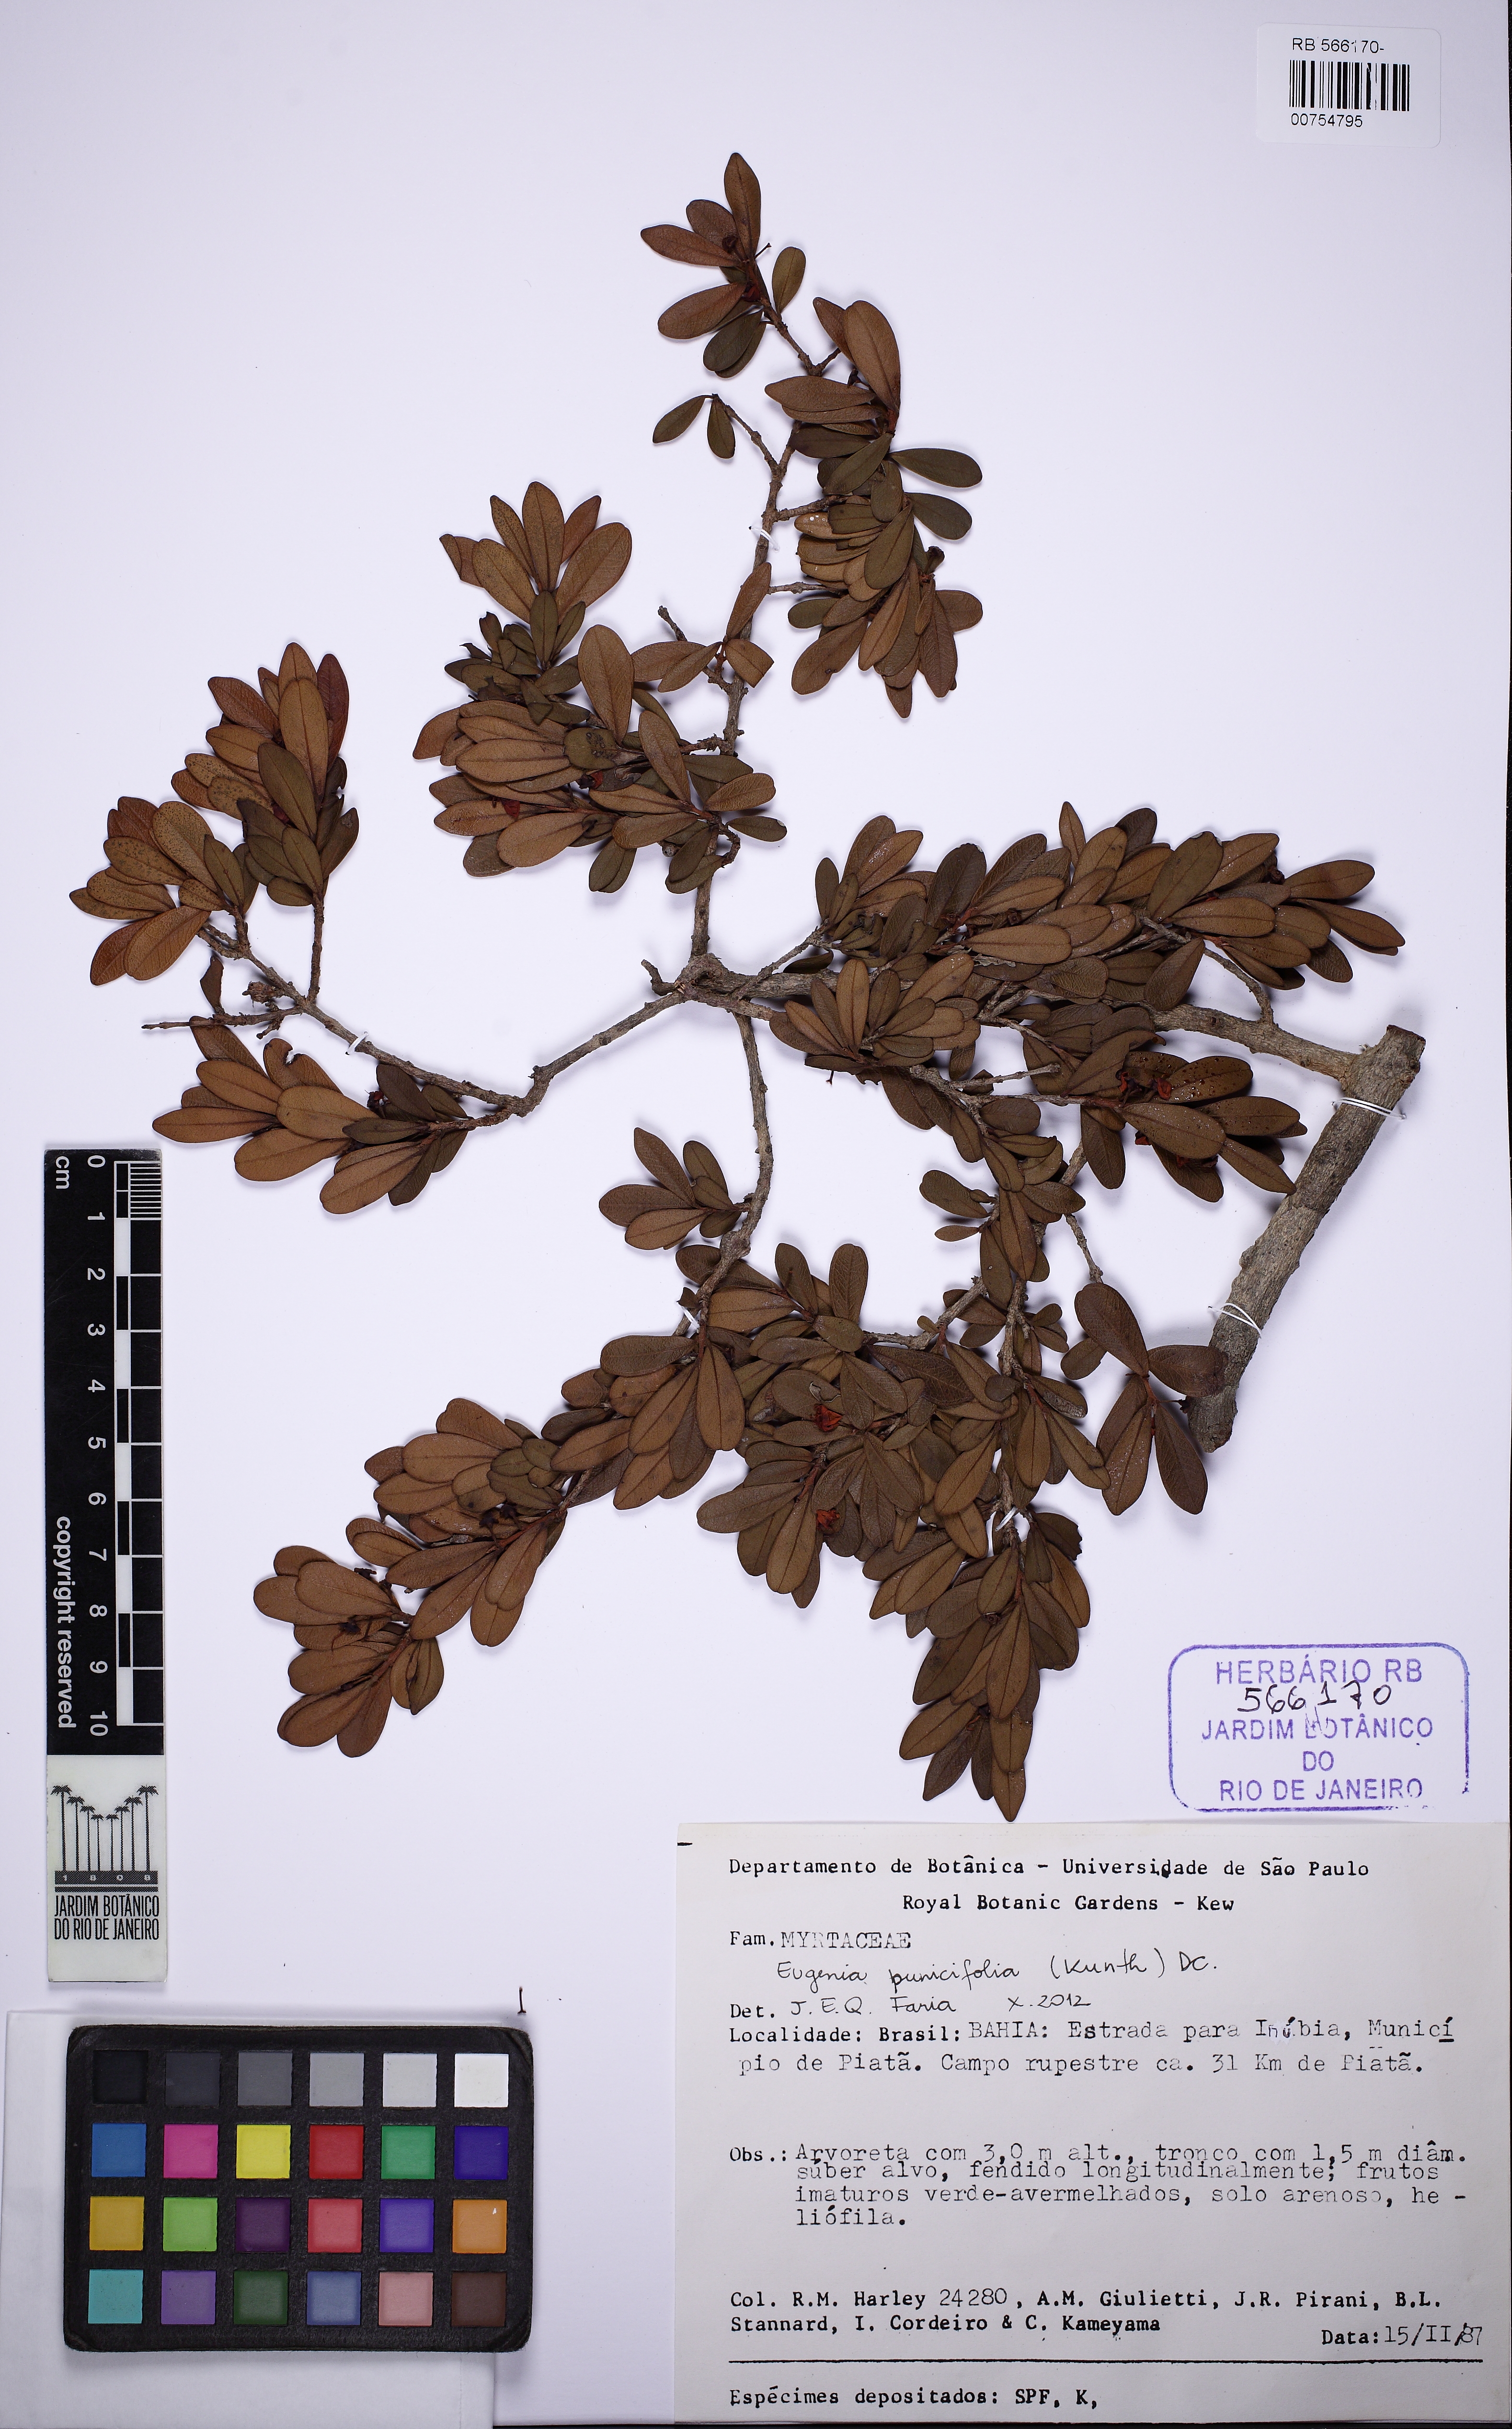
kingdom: Plantae
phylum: Tracheophyta
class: Magnoliopsida
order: Myrtales
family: Myrtaceae
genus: Eugenia
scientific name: Eugenia punicifolia
